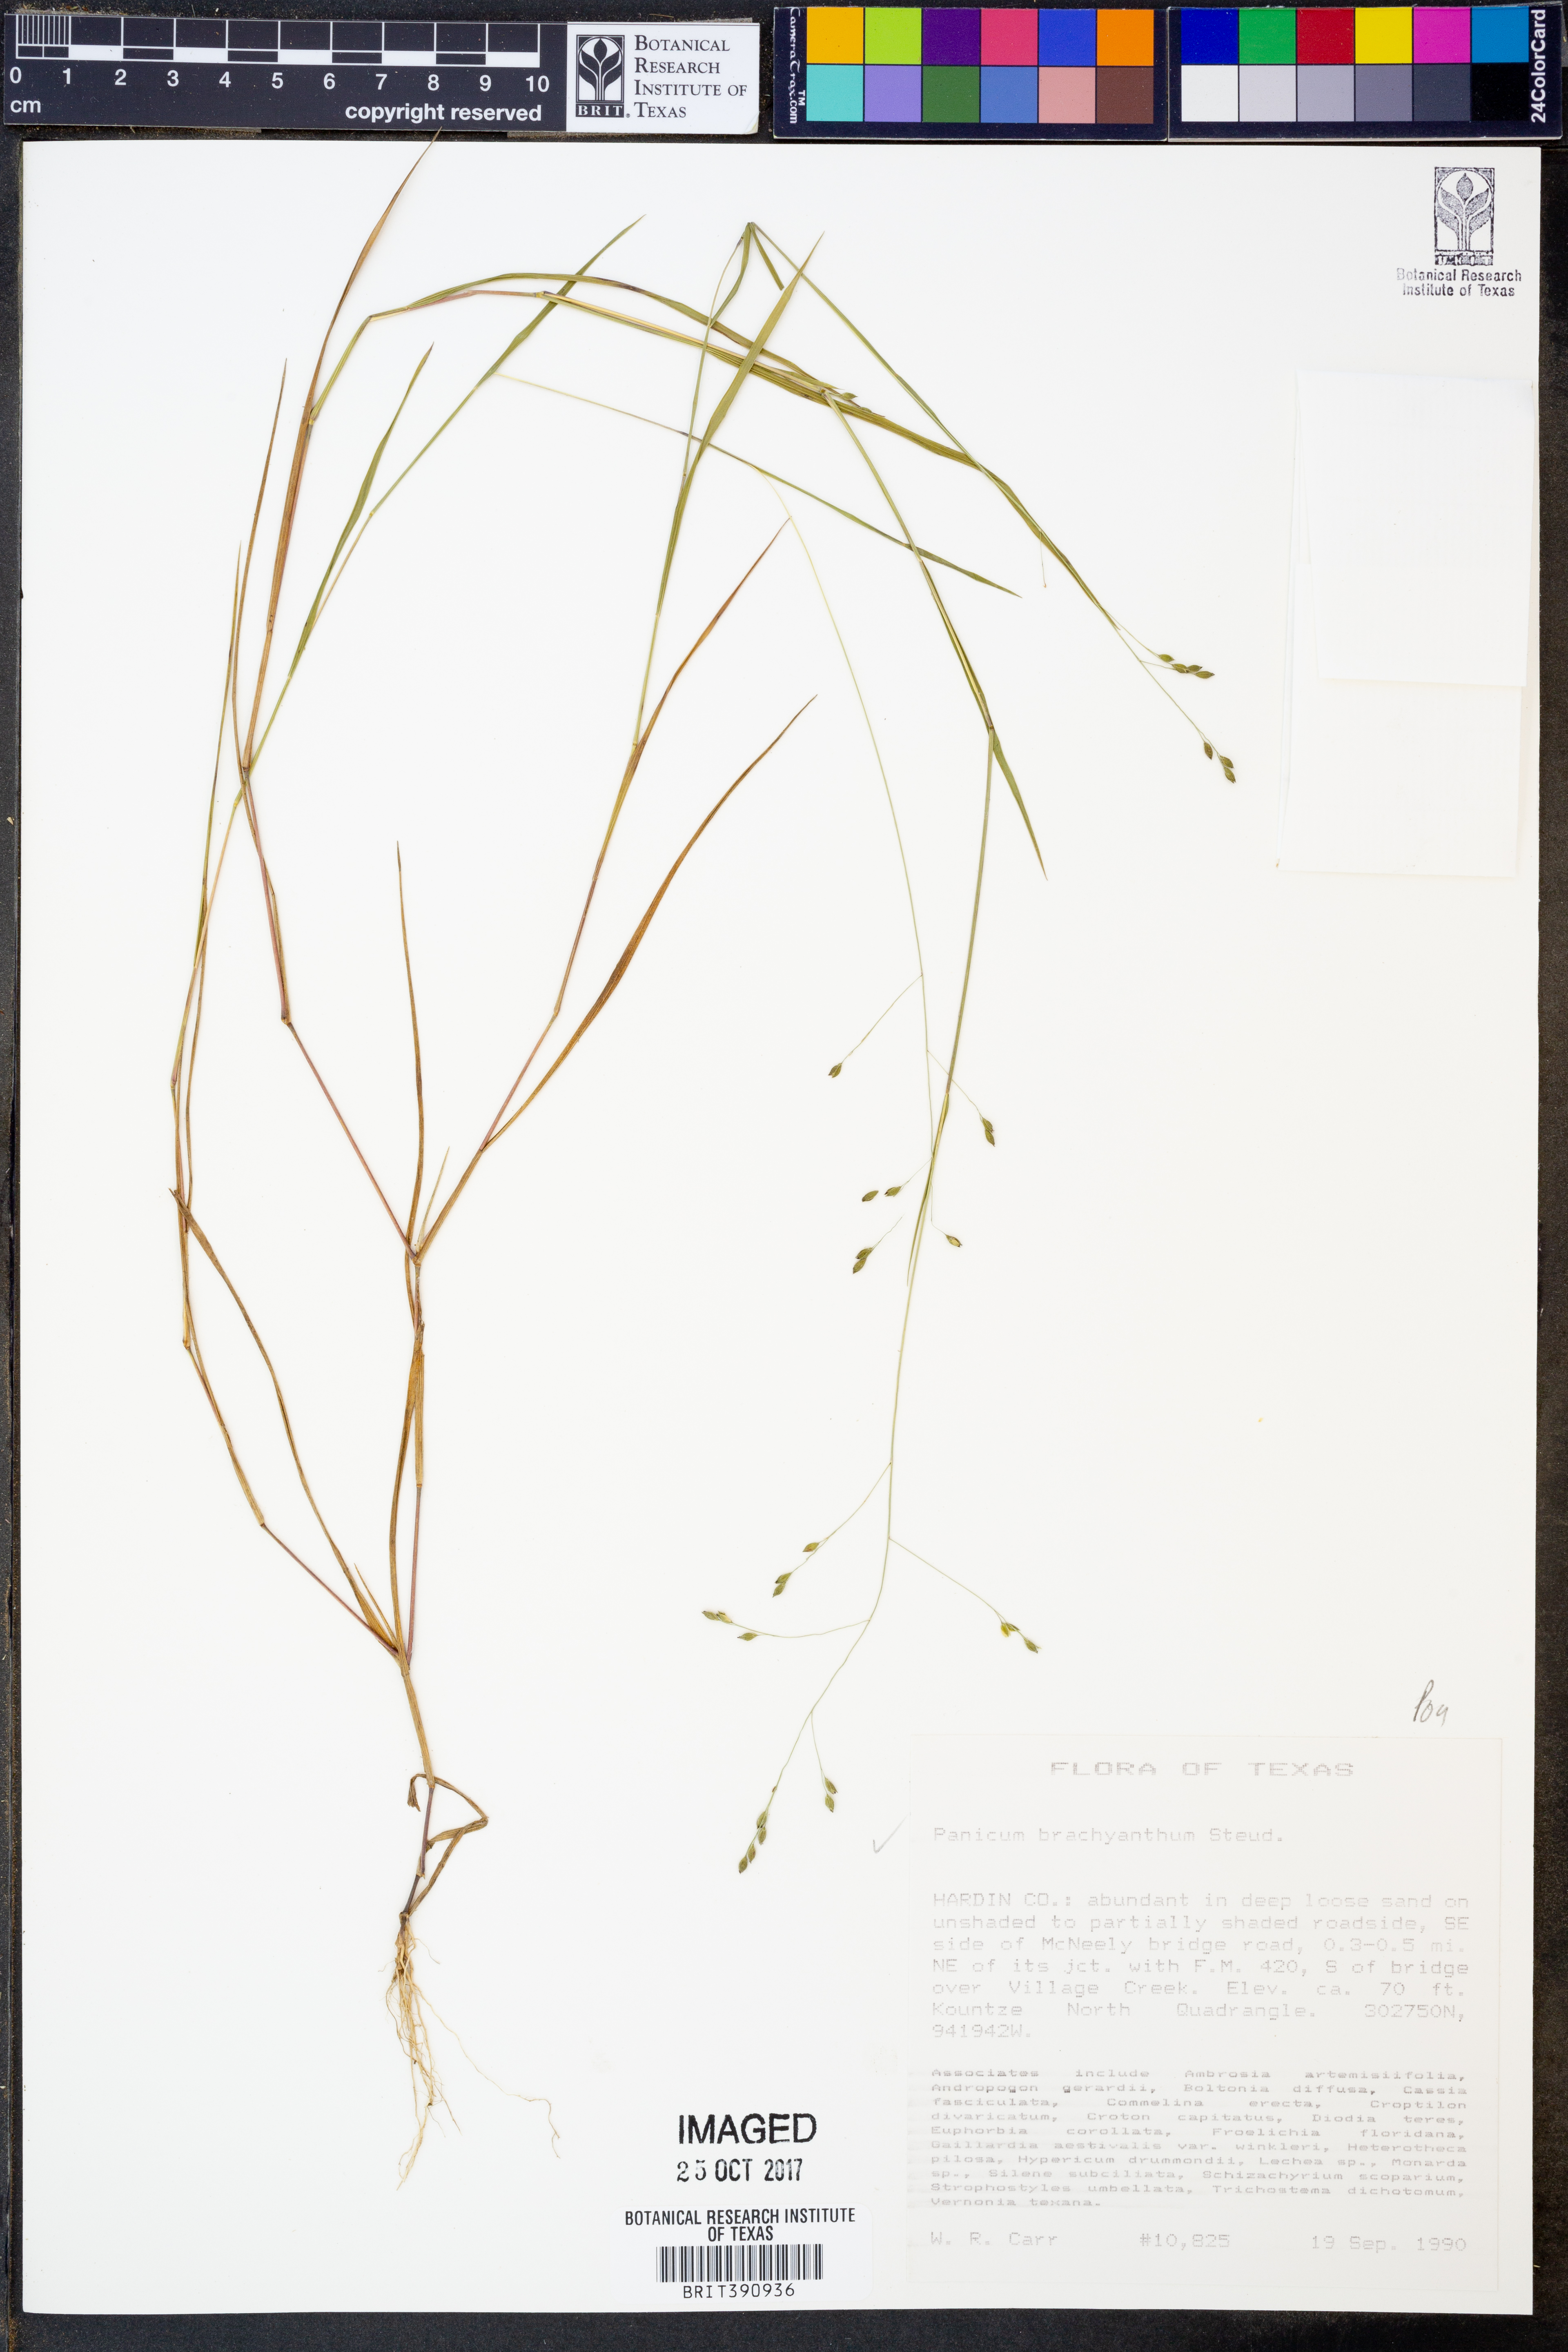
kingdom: Plantae
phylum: Tracheophyta
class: Liliopsida
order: Poales
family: Poaceae
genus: Kellochloa
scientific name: Kellochloa brachyantha
